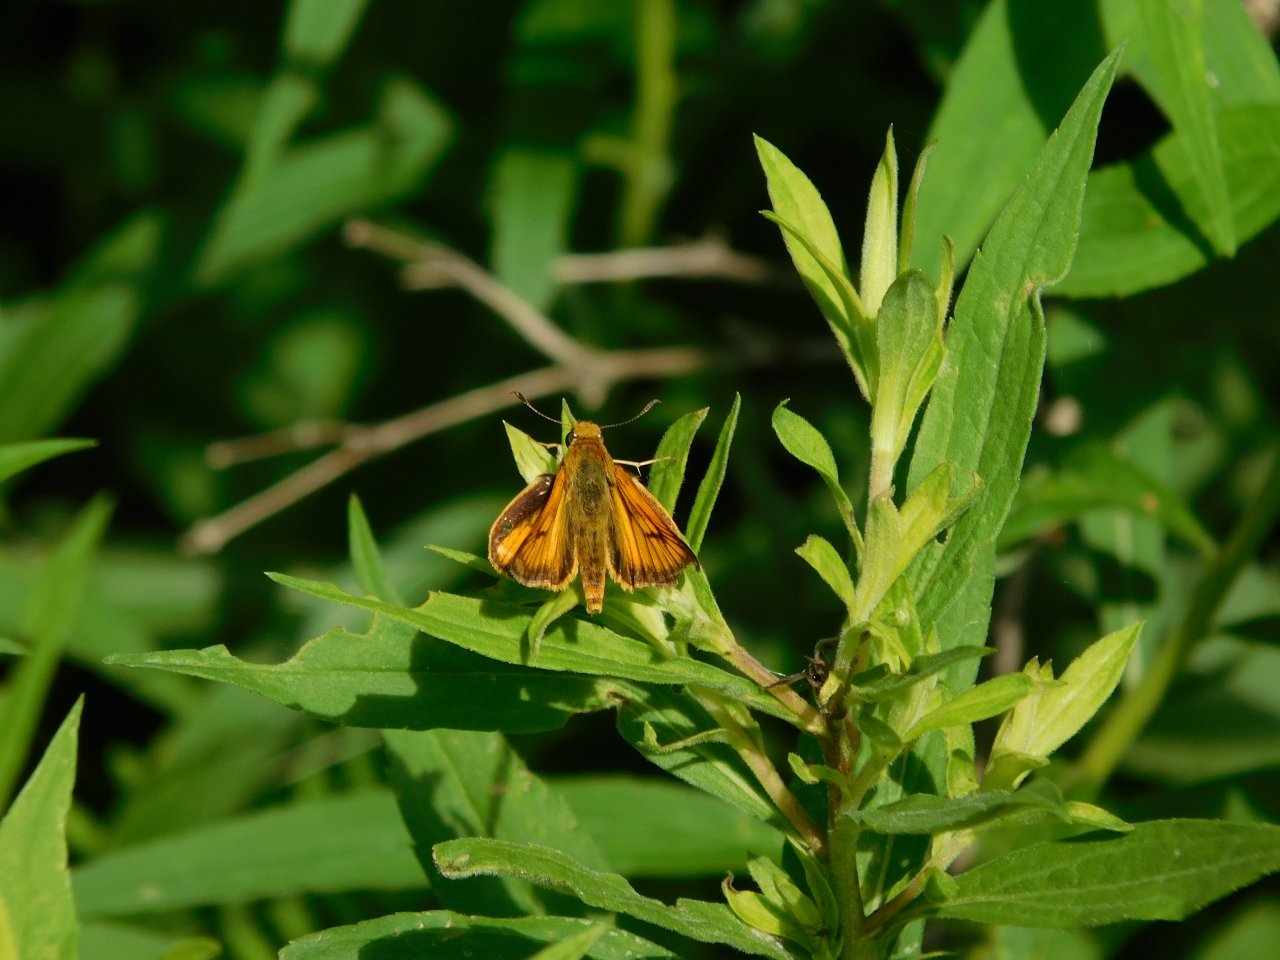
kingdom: Animalia
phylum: Arthropoda
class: Insecta
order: Lepidoptera
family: Hesperiidae
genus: Atrytone
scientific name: Atrytone delaware
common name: Delaware Skipper
